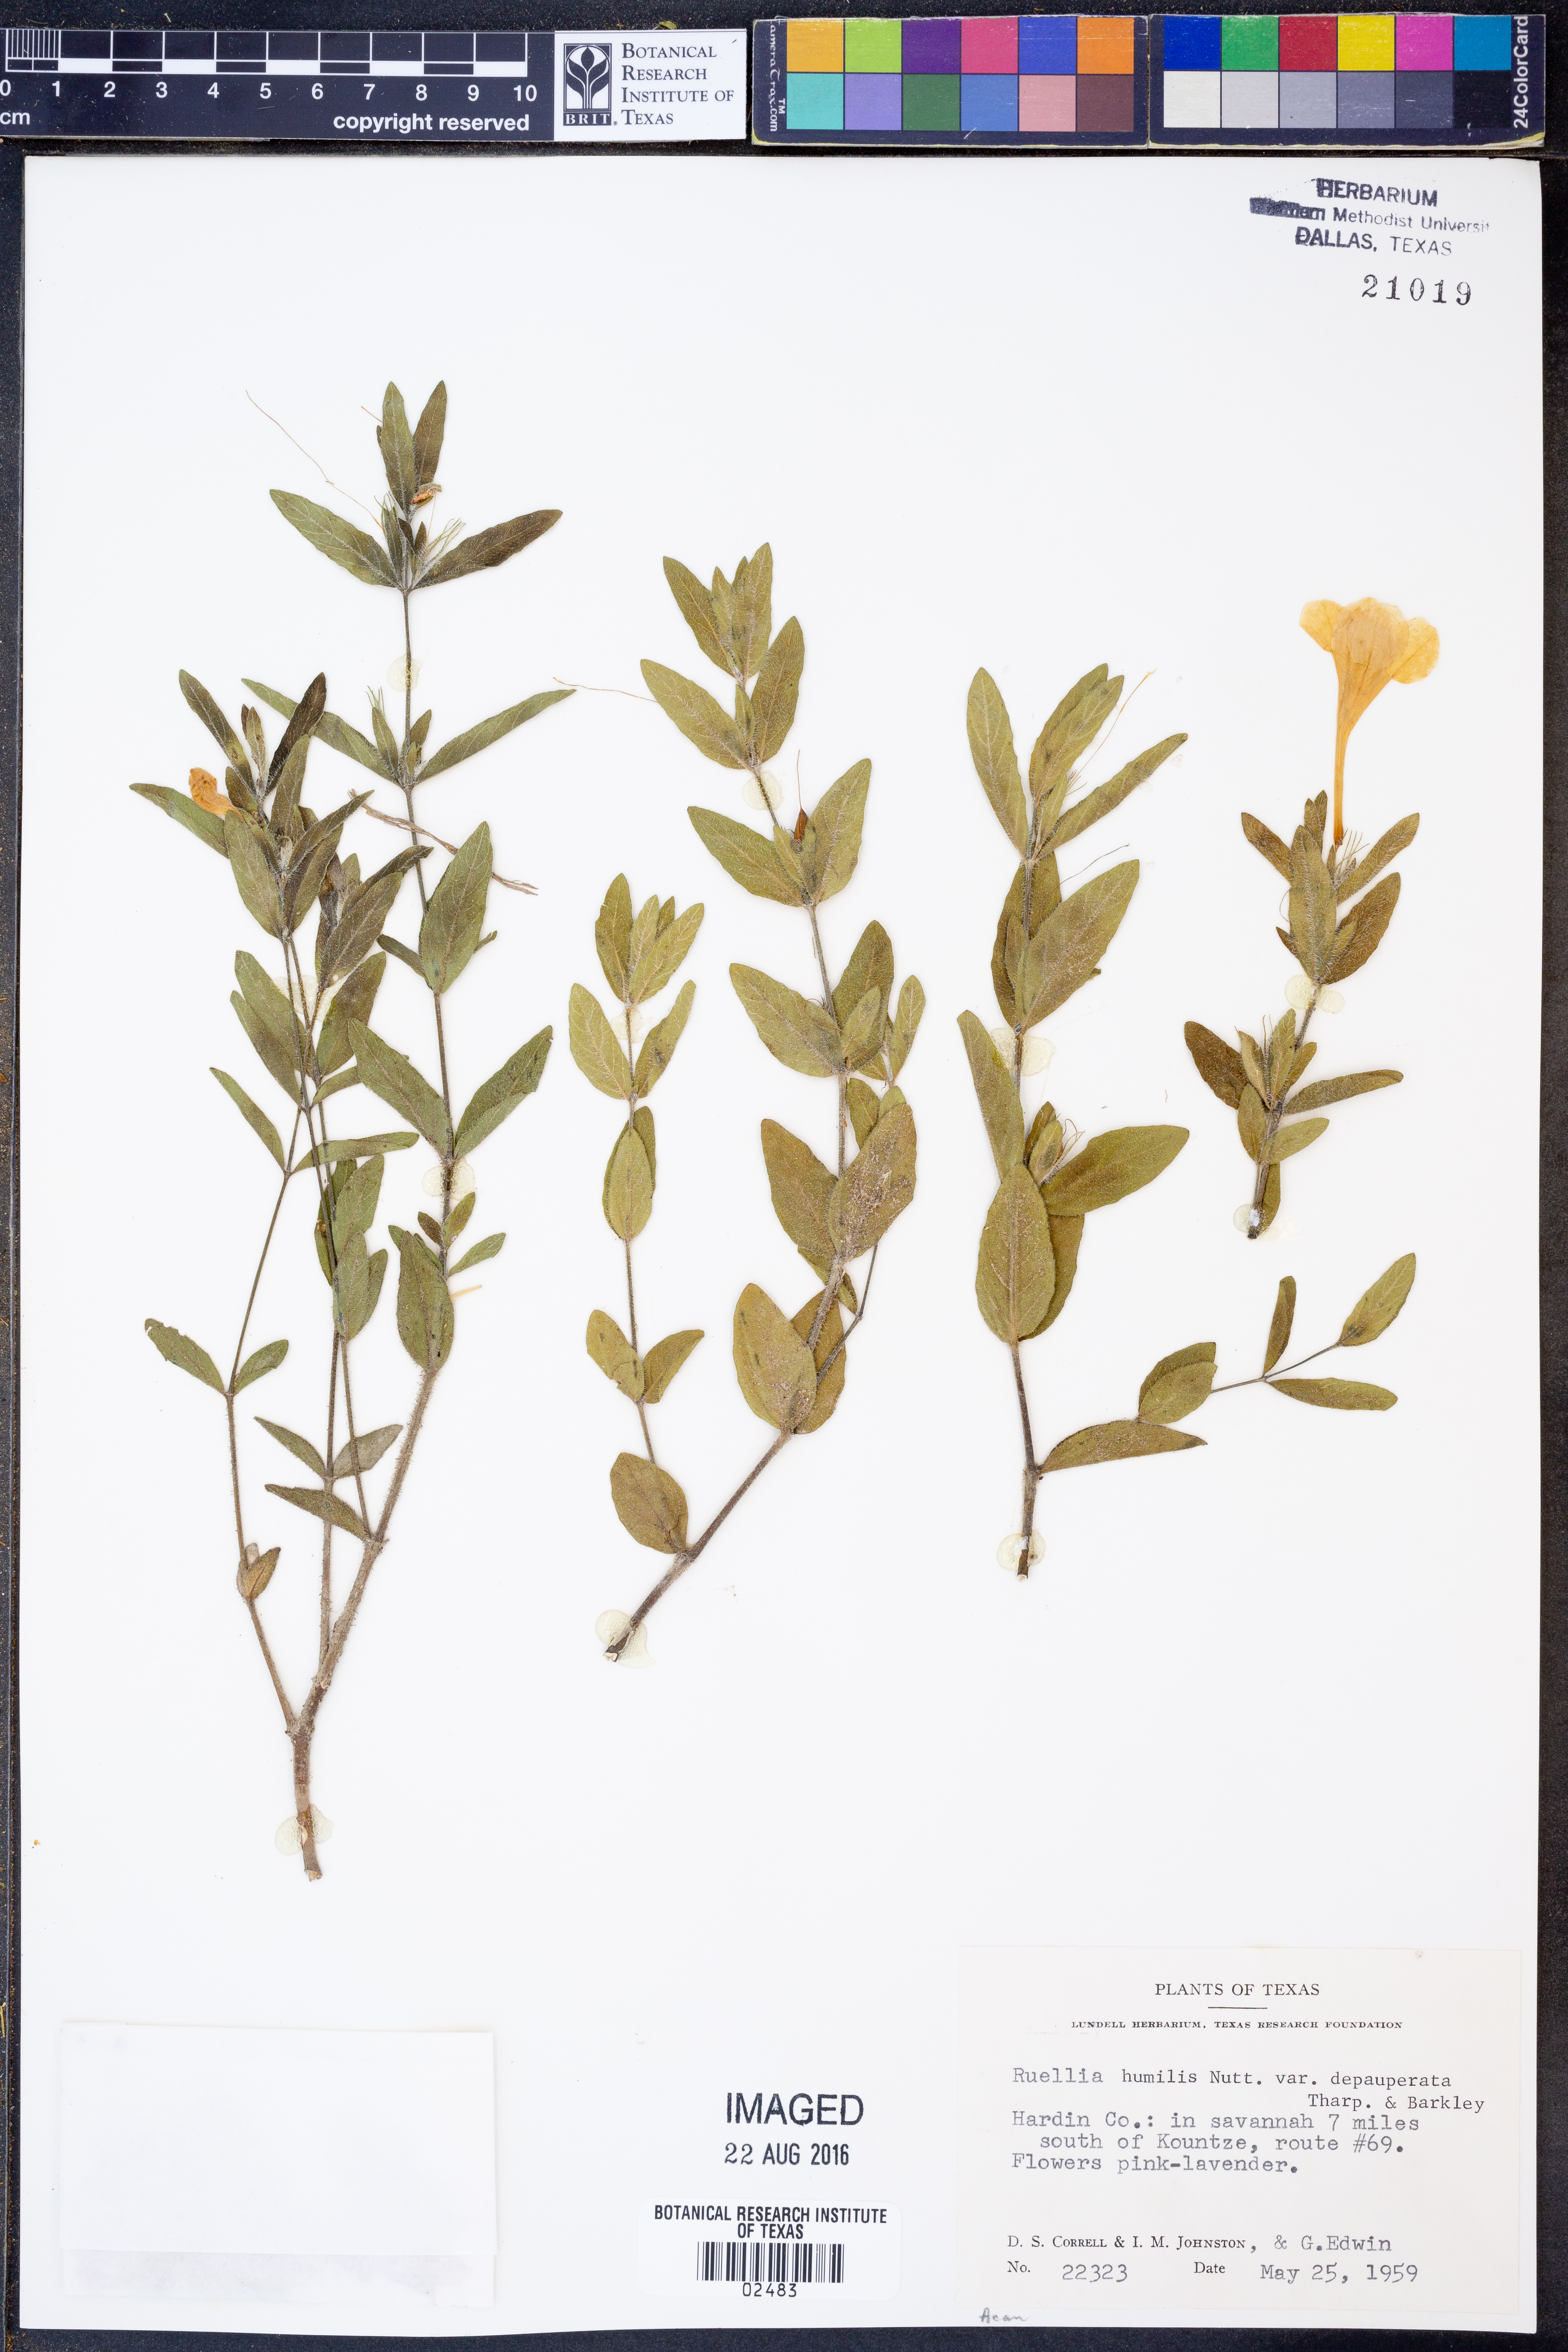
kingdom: Plantae
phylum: Tracheophyta
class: Magnoliopsida
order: Lamiales
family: Acanthaceae
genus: Ruellia
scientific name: Ruellia humilis
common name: Fringe-leaf ruellia
